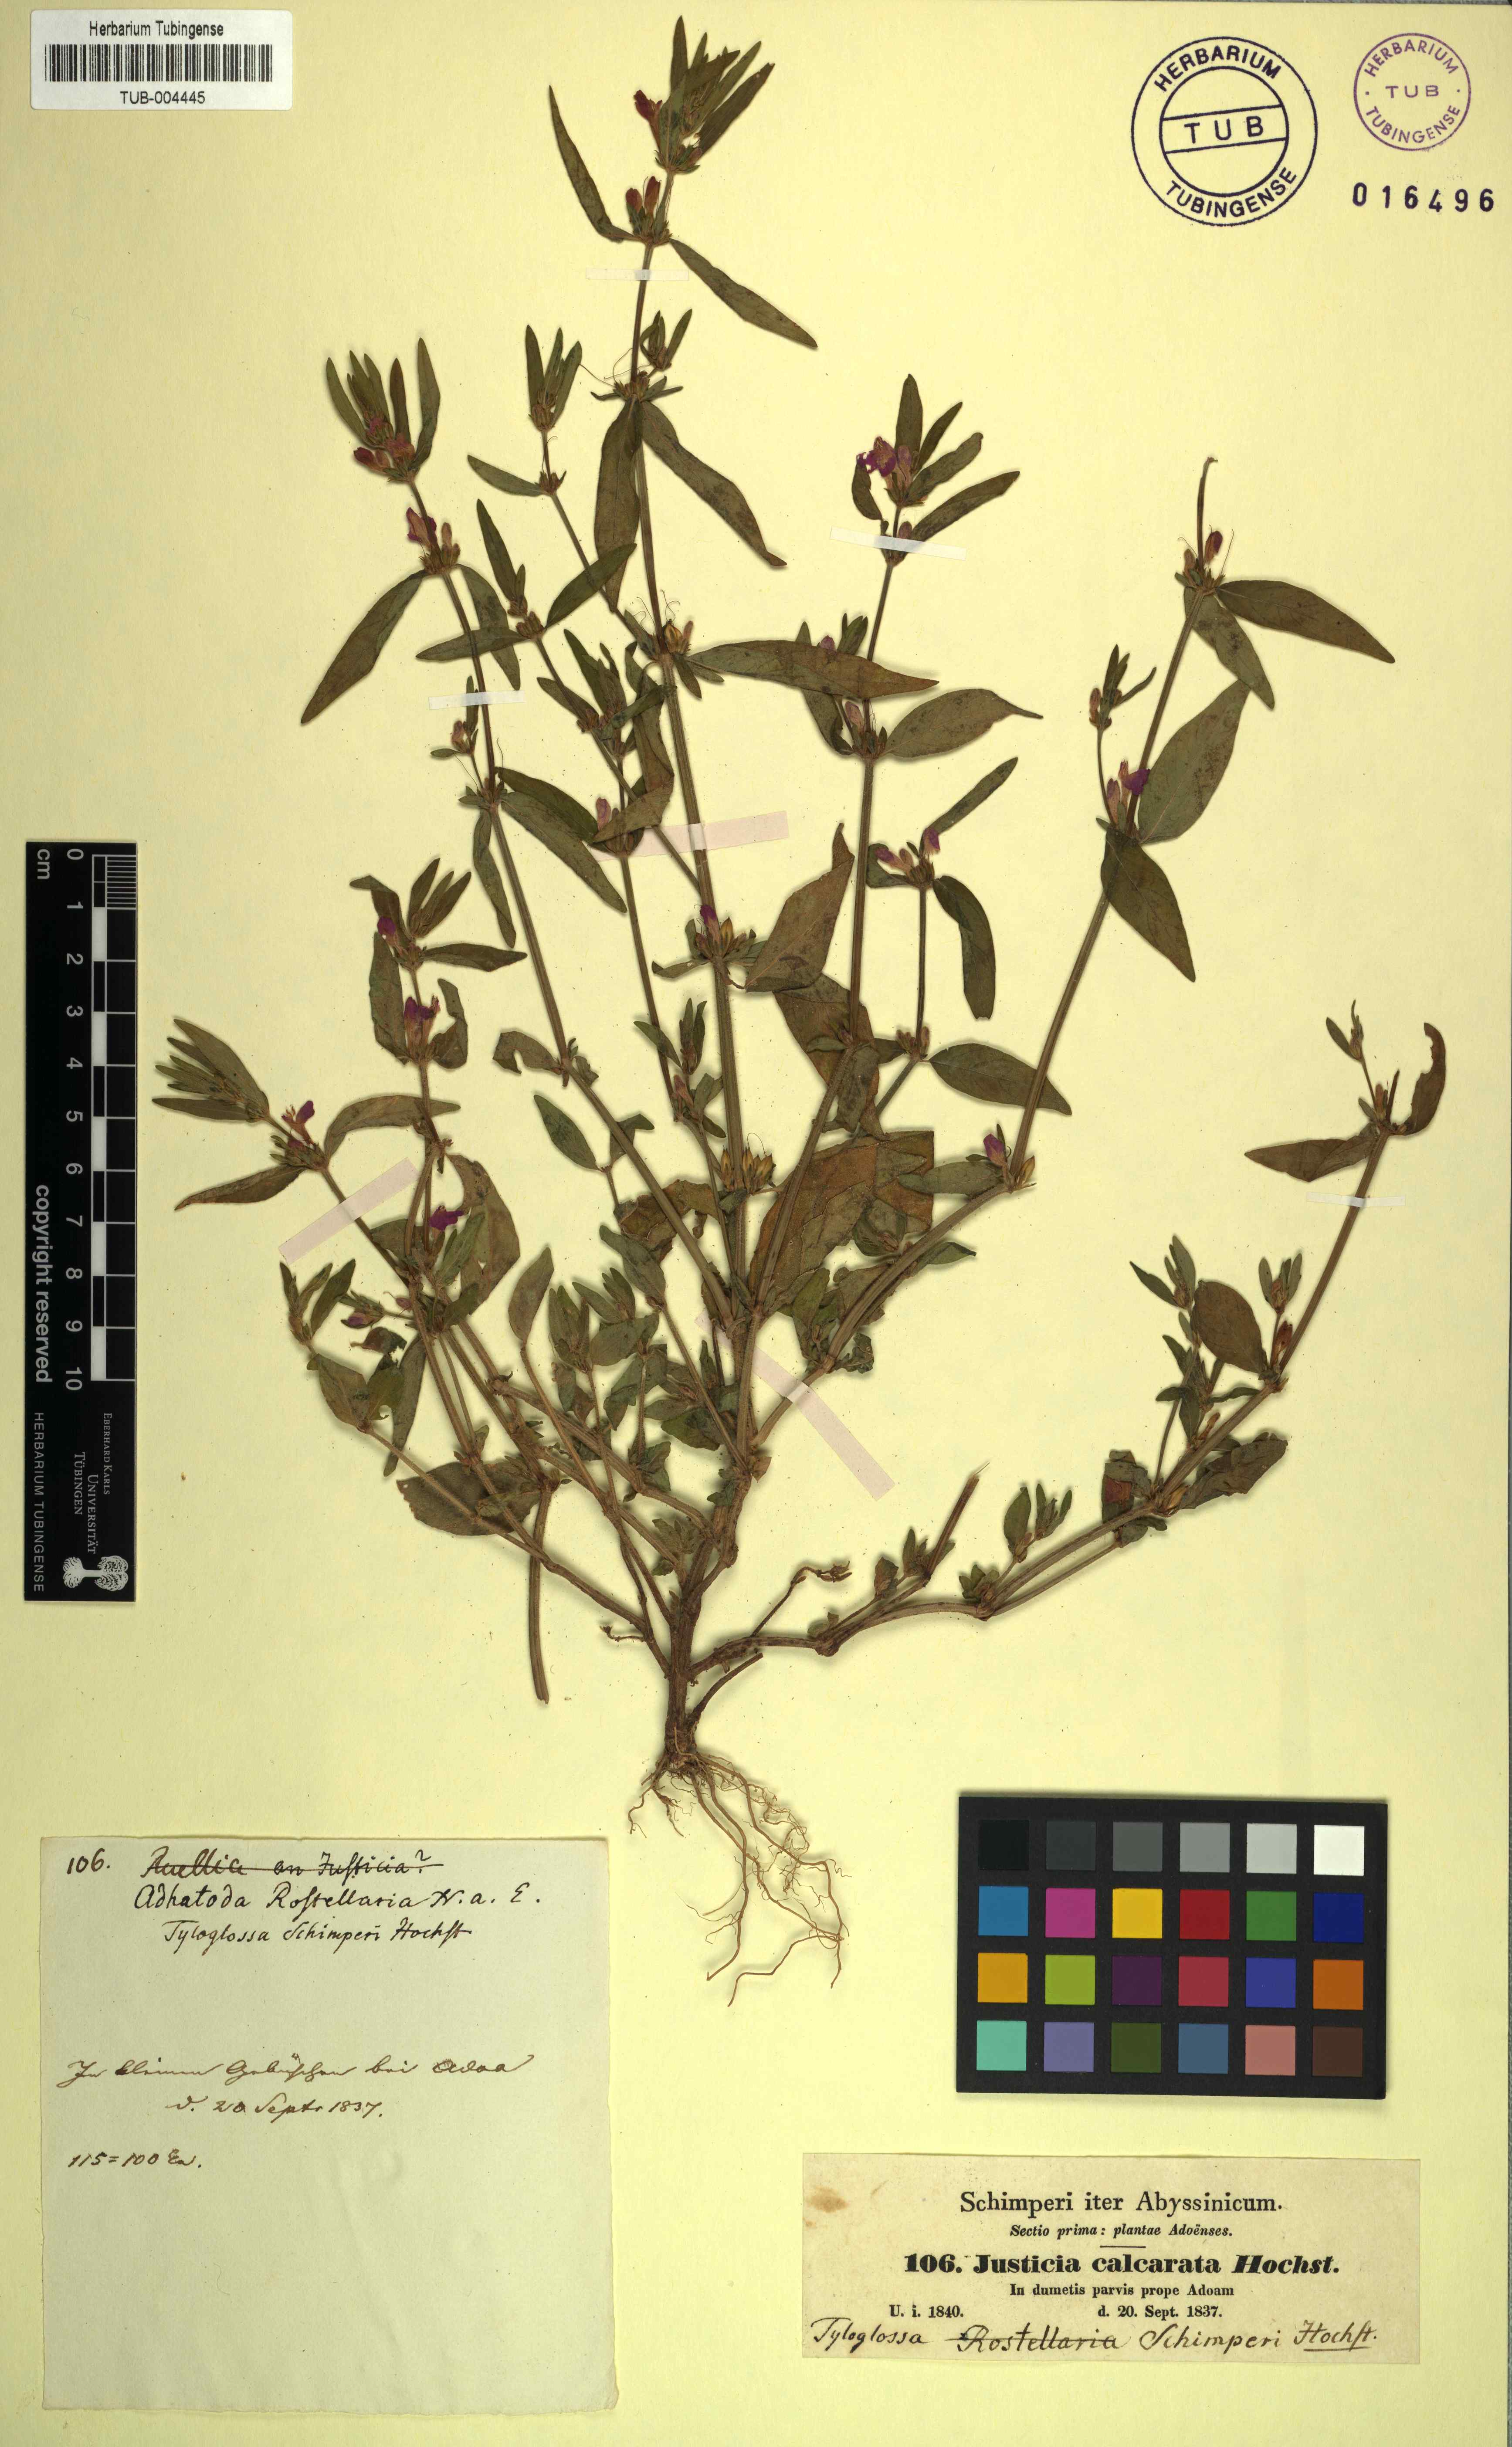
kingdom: Plantae
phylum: Tracheophyta
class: Magnoliopsida
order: Lamiales
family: Acanthaceae
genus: Justicia
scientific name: Justicia schimperiana
